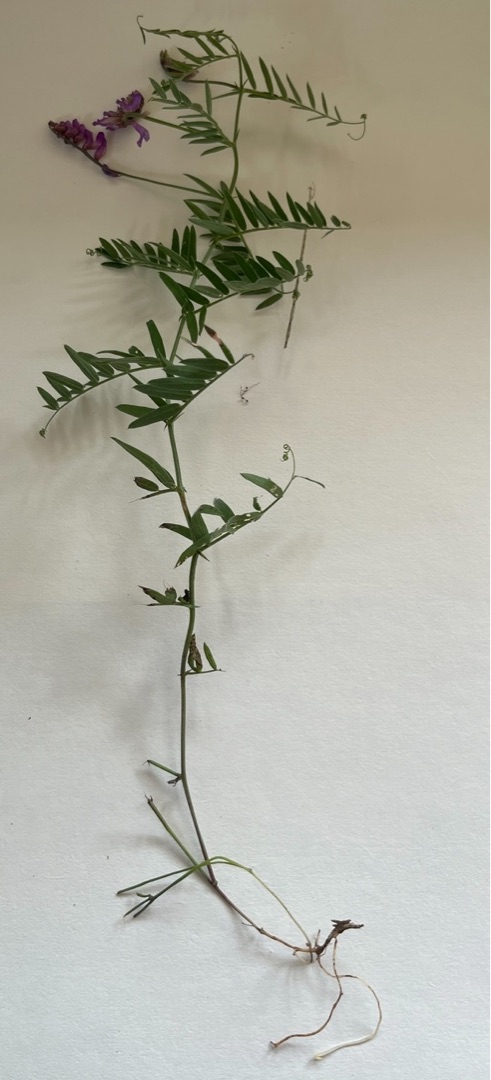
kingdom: Plantae
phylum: Tracheophyta
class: Magnoliopsida
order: Fabales
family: Fabaceae
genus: Vicia
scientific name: Vicia cracca
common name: Muse-vikke
